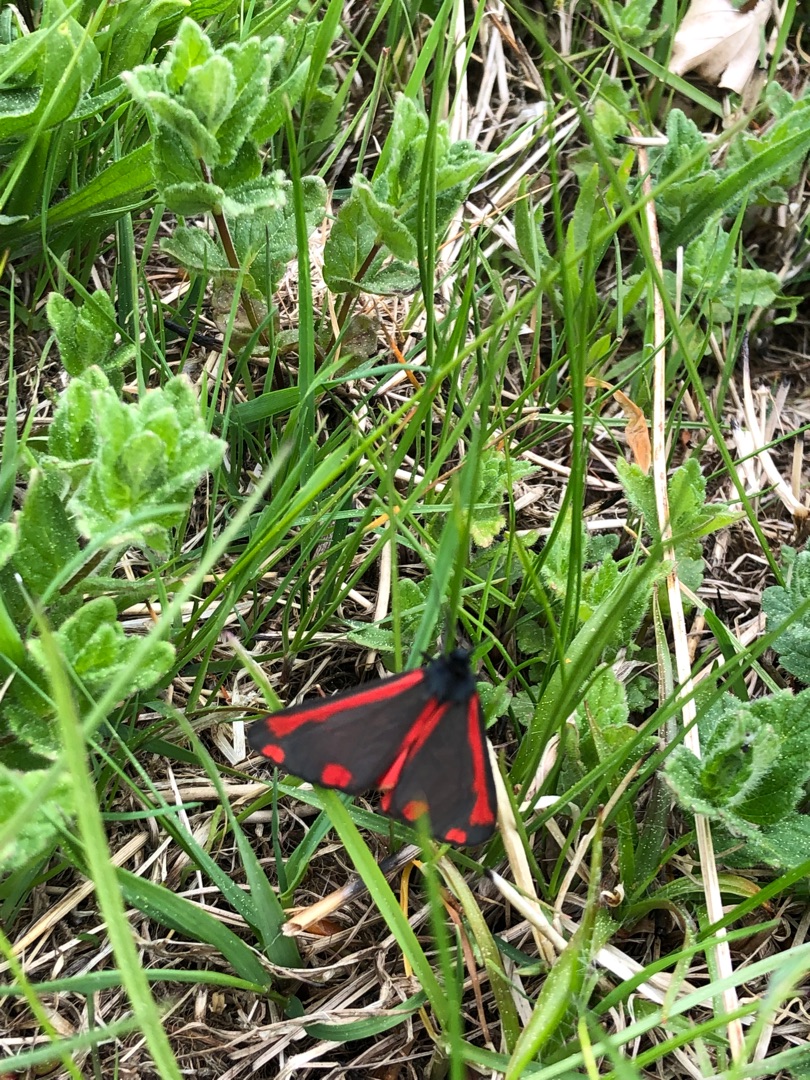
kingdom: Animalia
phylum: Arthropoda
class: Insecta
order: Lepidoptera
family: Erebidae
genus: Tyria
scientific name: Tyria jacobaeae
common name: Blodplet
